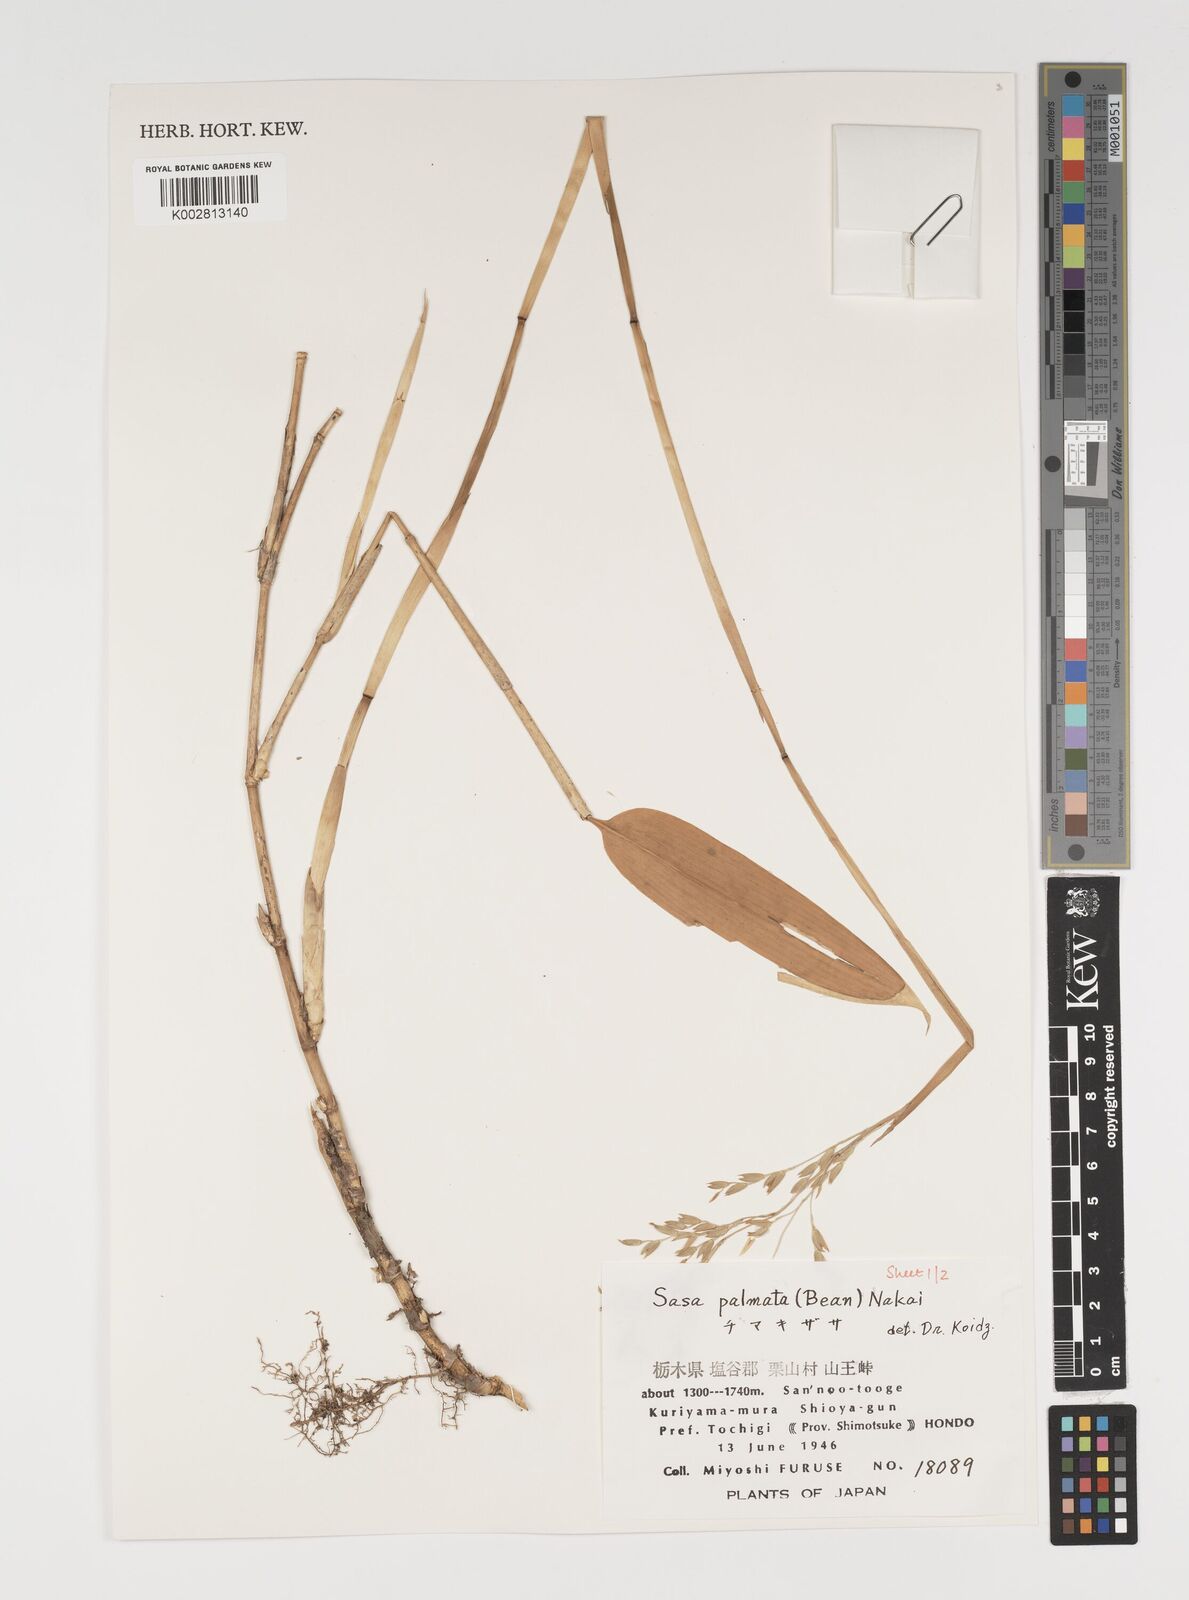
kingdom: Plantae
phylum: Tracheophyta
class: Liliopsida
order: Poales
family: Poaceae
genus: Sasa
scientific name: Sasa palmata
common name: Broad-leaved bamboo
